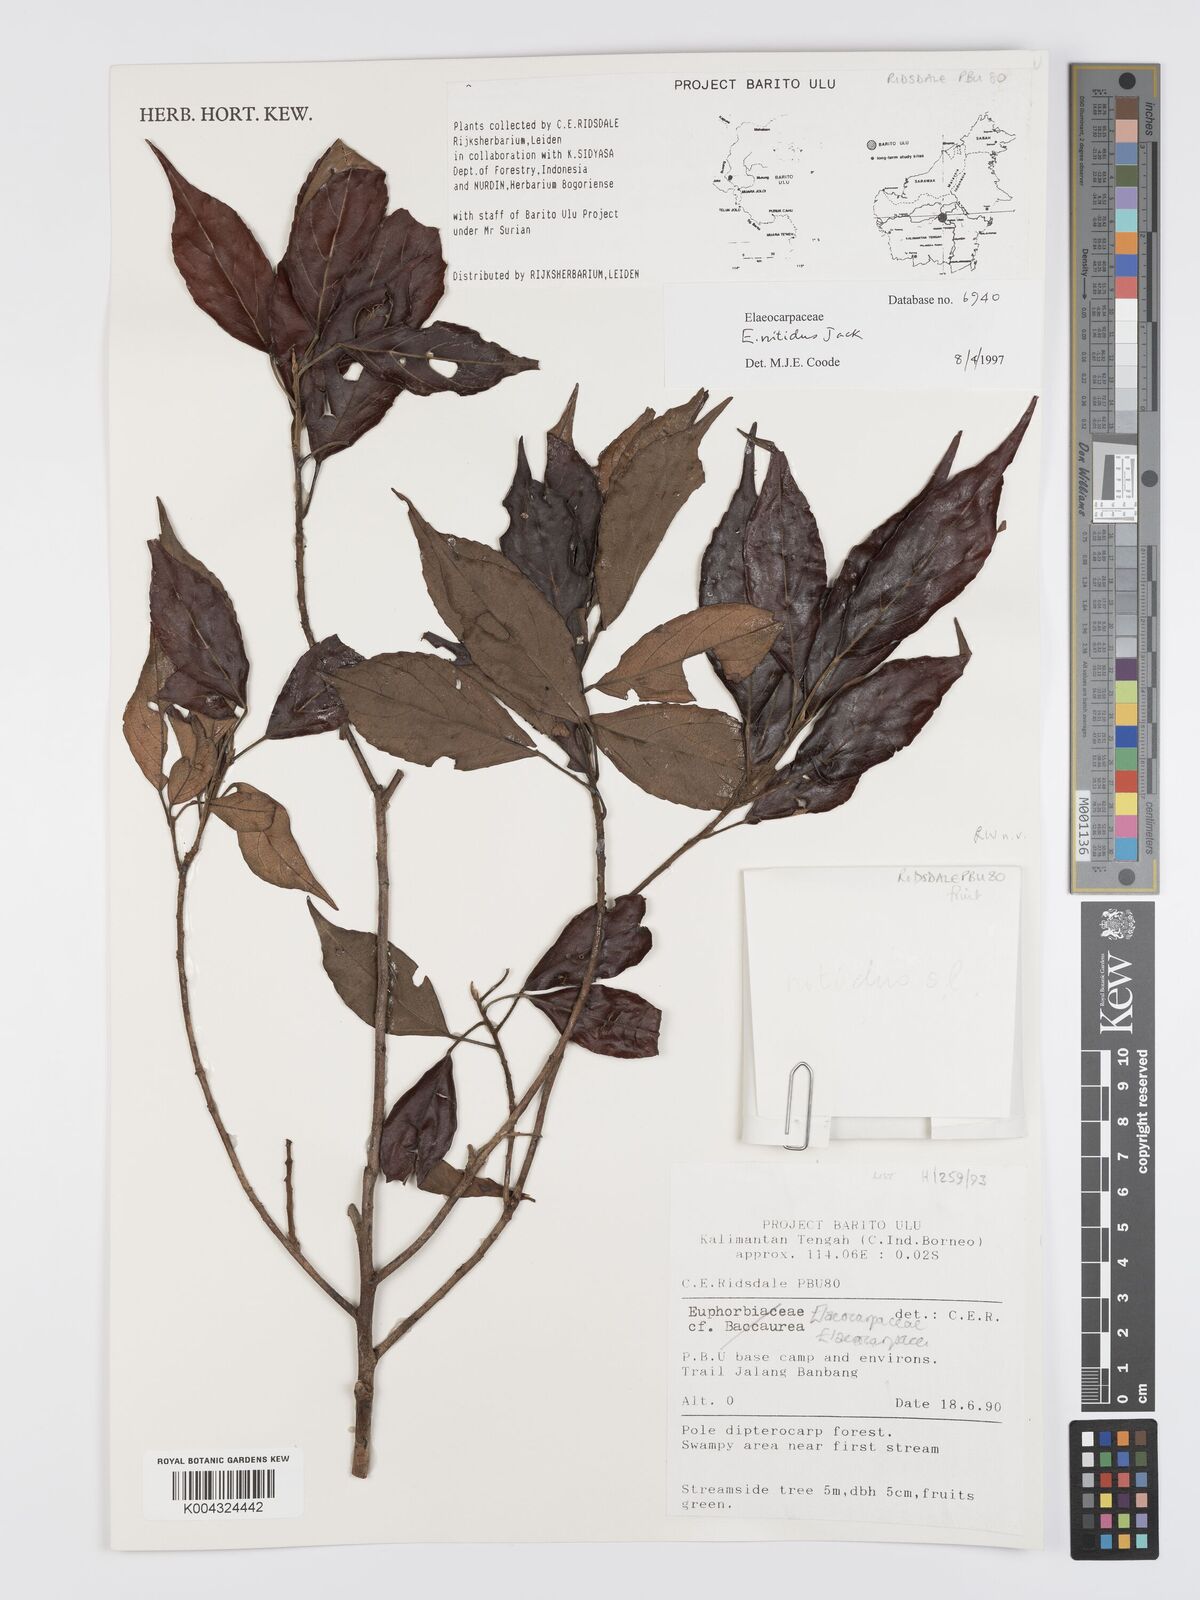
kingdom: Plantae
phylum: Tracheophyta
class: Magnoliopsida
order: Oxalidales
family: Elaeocarpaceae
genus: Elaeocarpus
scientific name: Elaeocarpus nitidus
